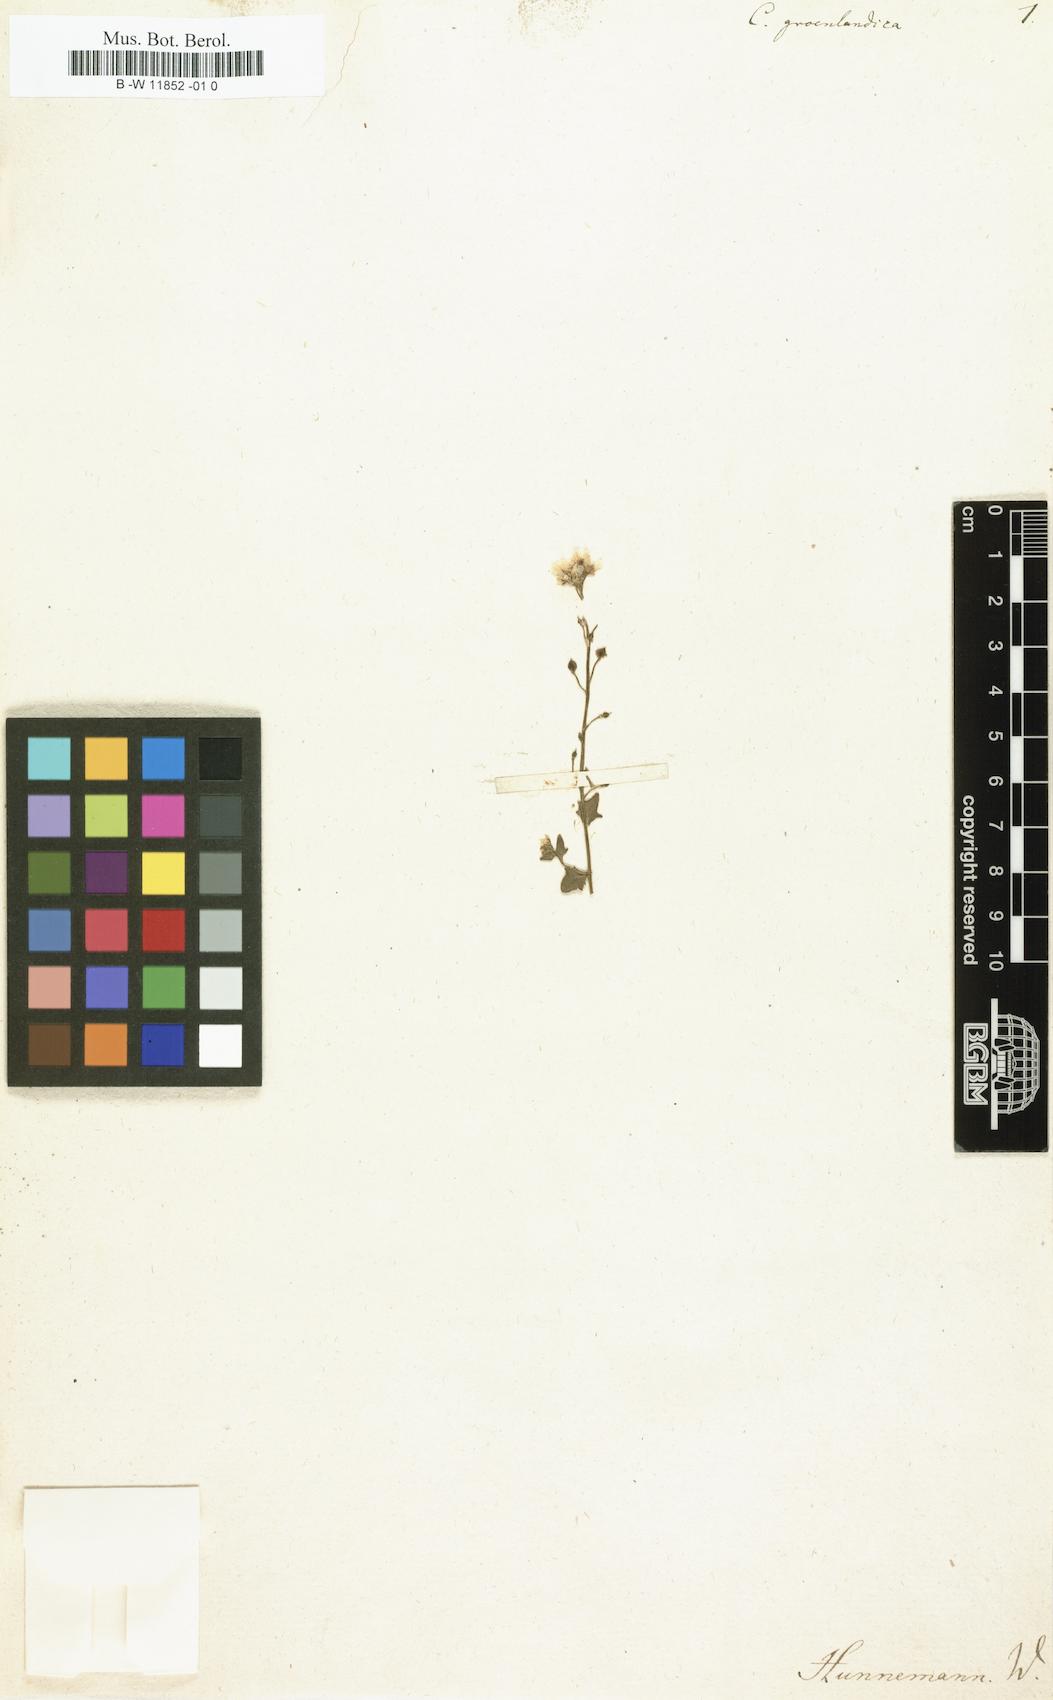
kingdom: Plantae
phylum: Tracheophyta
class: Magnoliopsida
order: Brassicales
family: Brassicaceae
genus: Cochlearia
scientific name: Cochlearia groenlandica
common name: Danish scurvygrass
